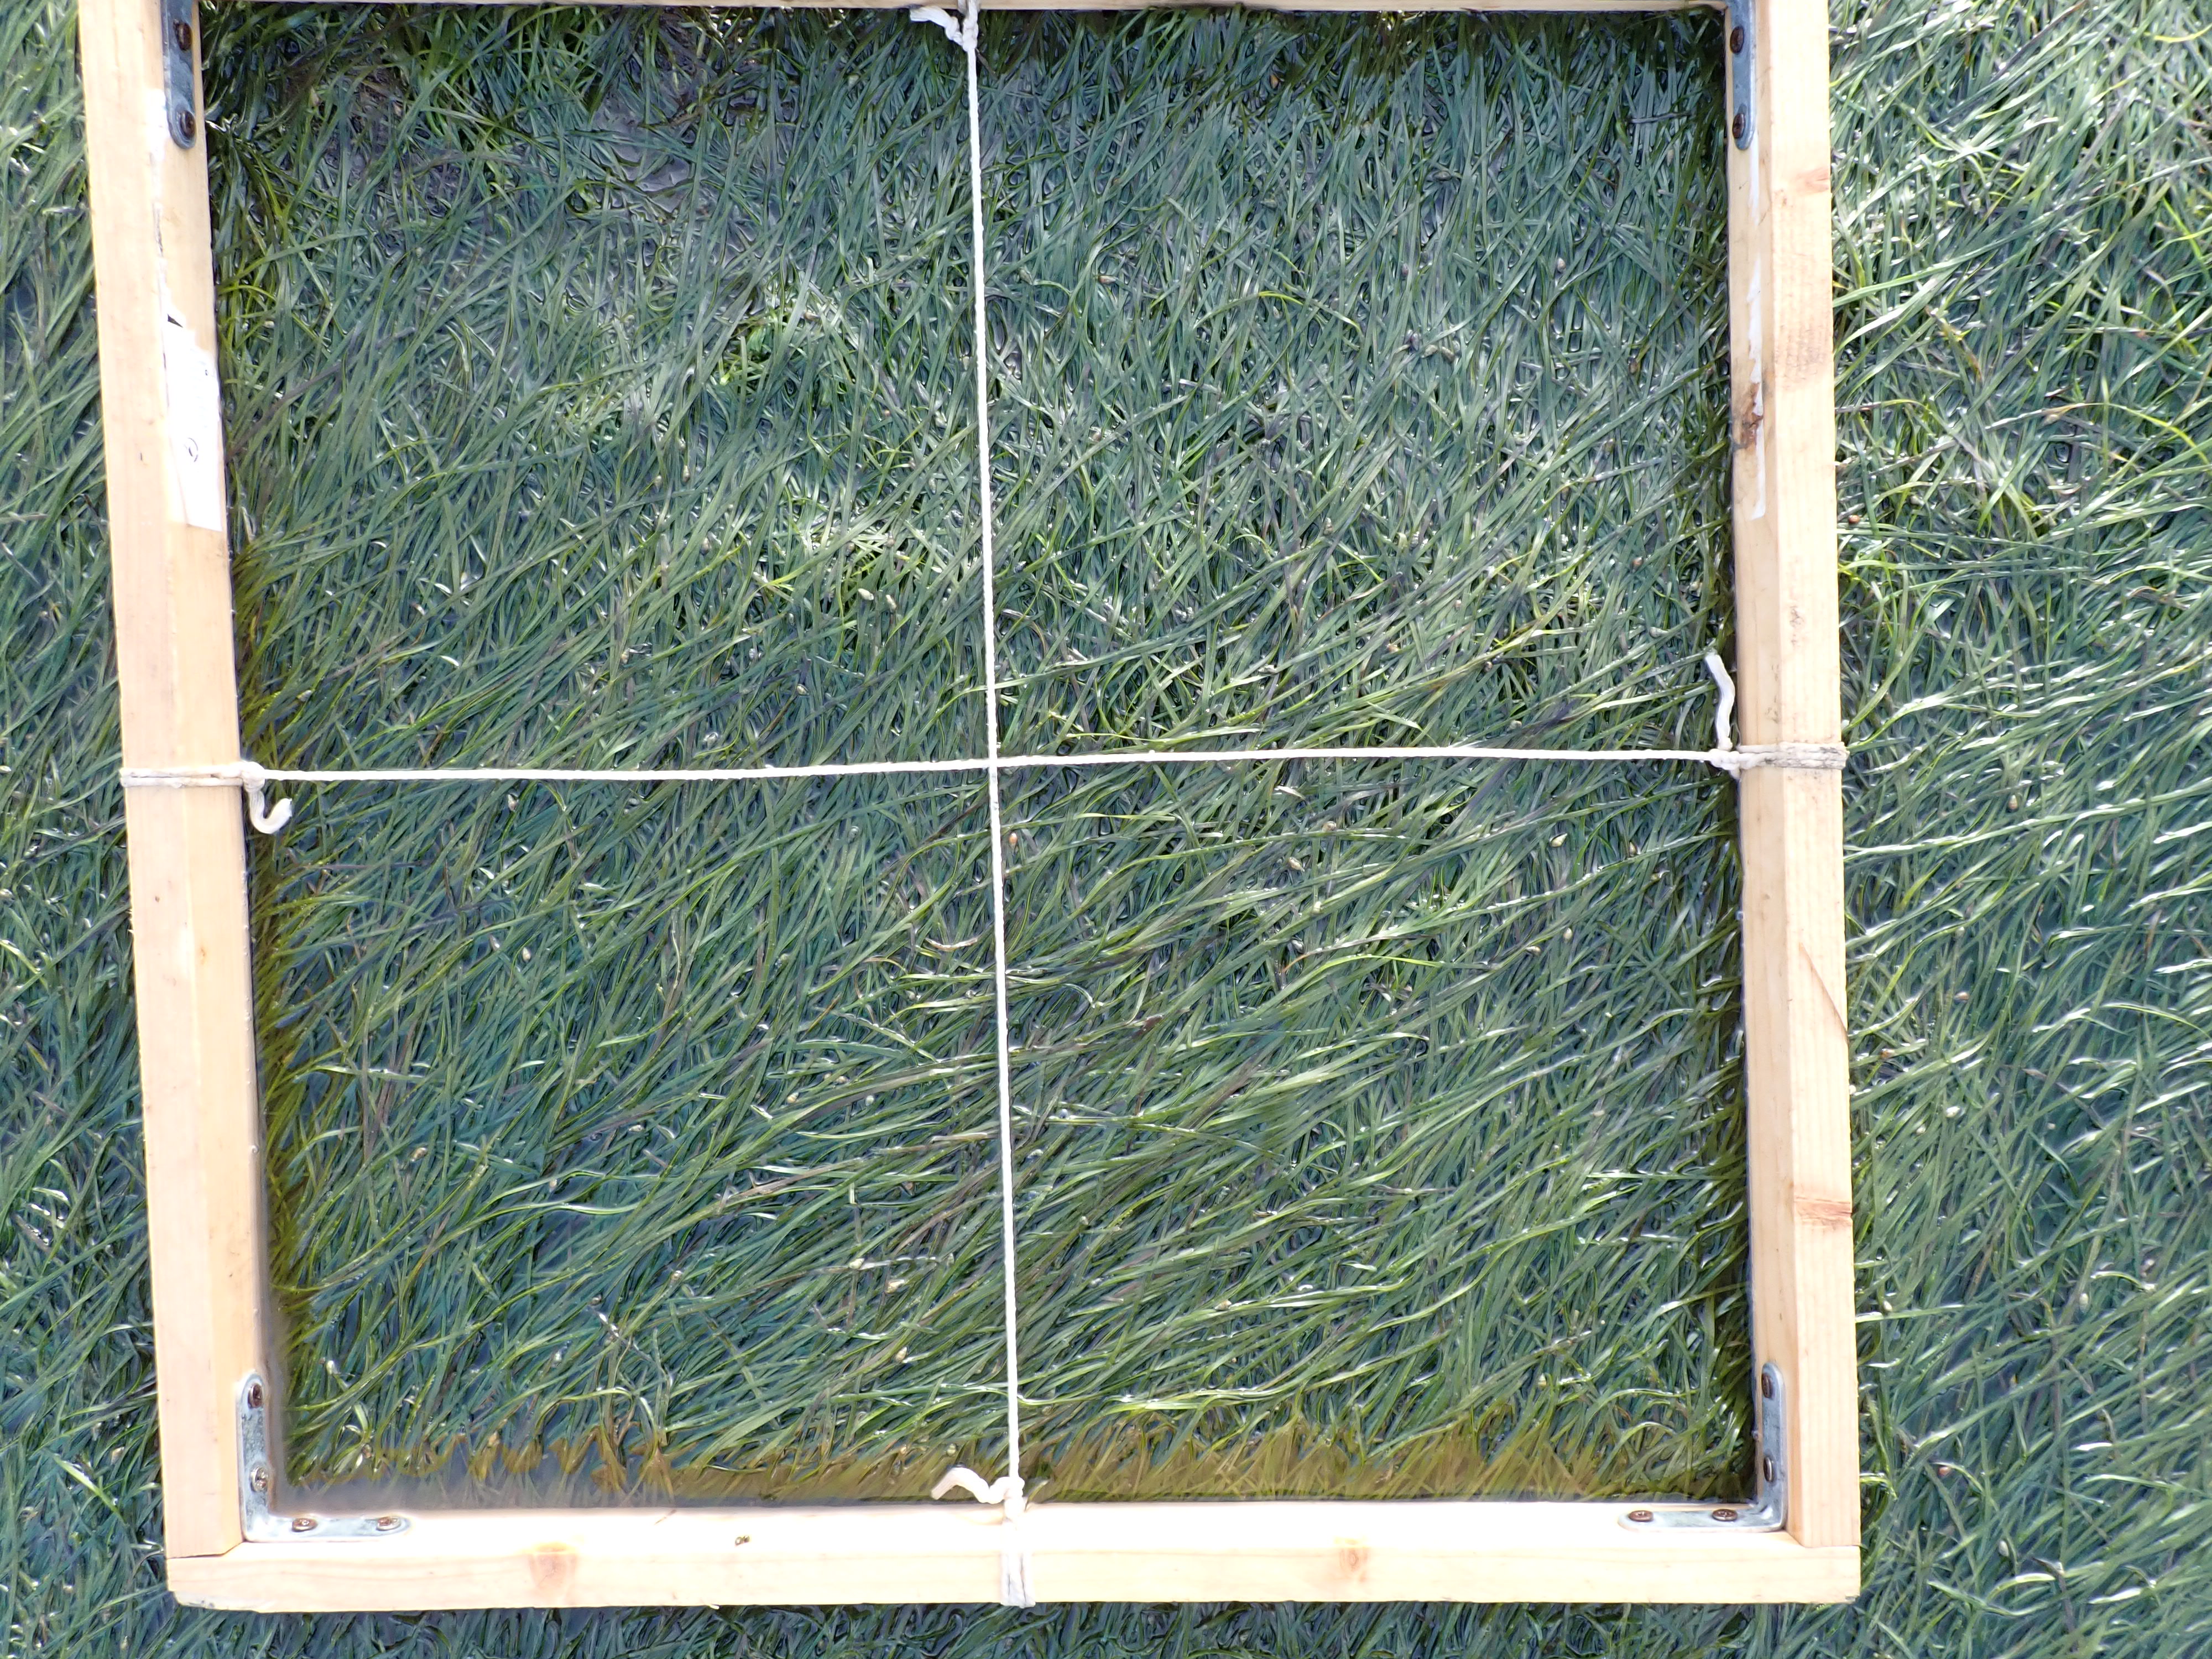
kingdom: Plantae
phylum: Tracheophyta
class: Liliopsida
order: Alismatales
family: Zosteraceae
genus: Zostera
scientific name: Zostera noltii
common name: Dwarf eelgrass
